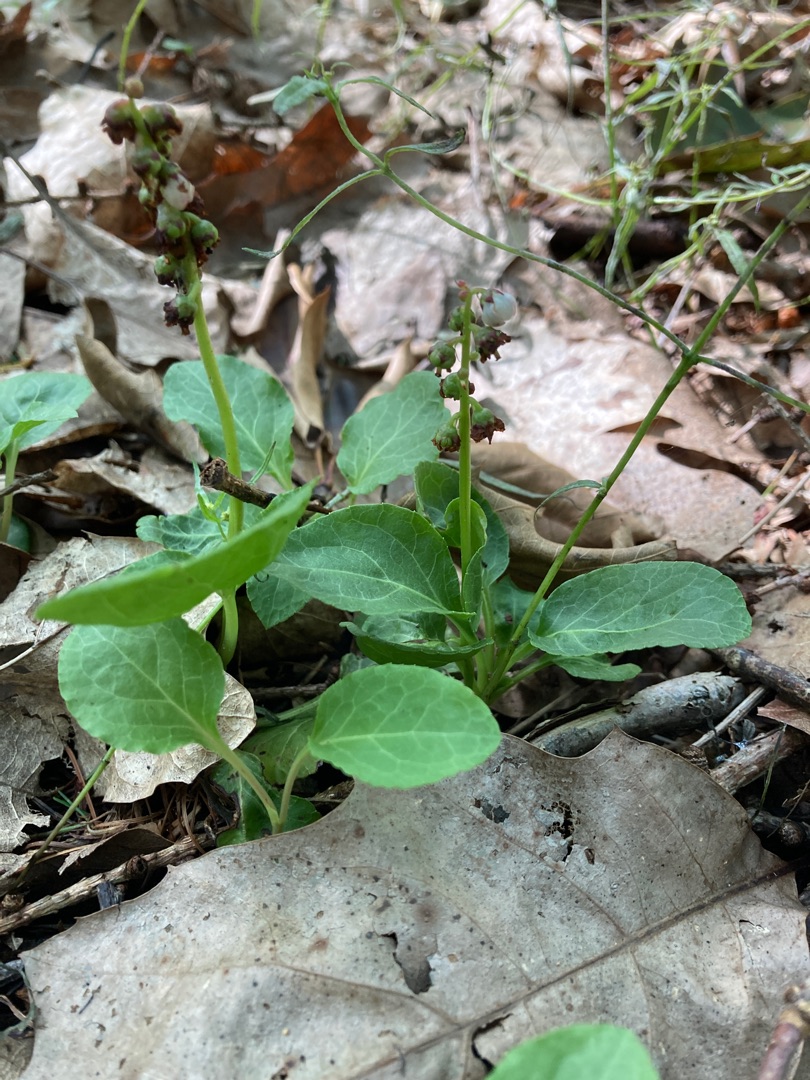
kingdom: Plantae
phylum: Tracheophyta
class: Magnoliopsida
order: Ericales
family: Ericaceae
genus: Pyrola
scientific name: Pyrola minor
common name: Liden vintergrøn
